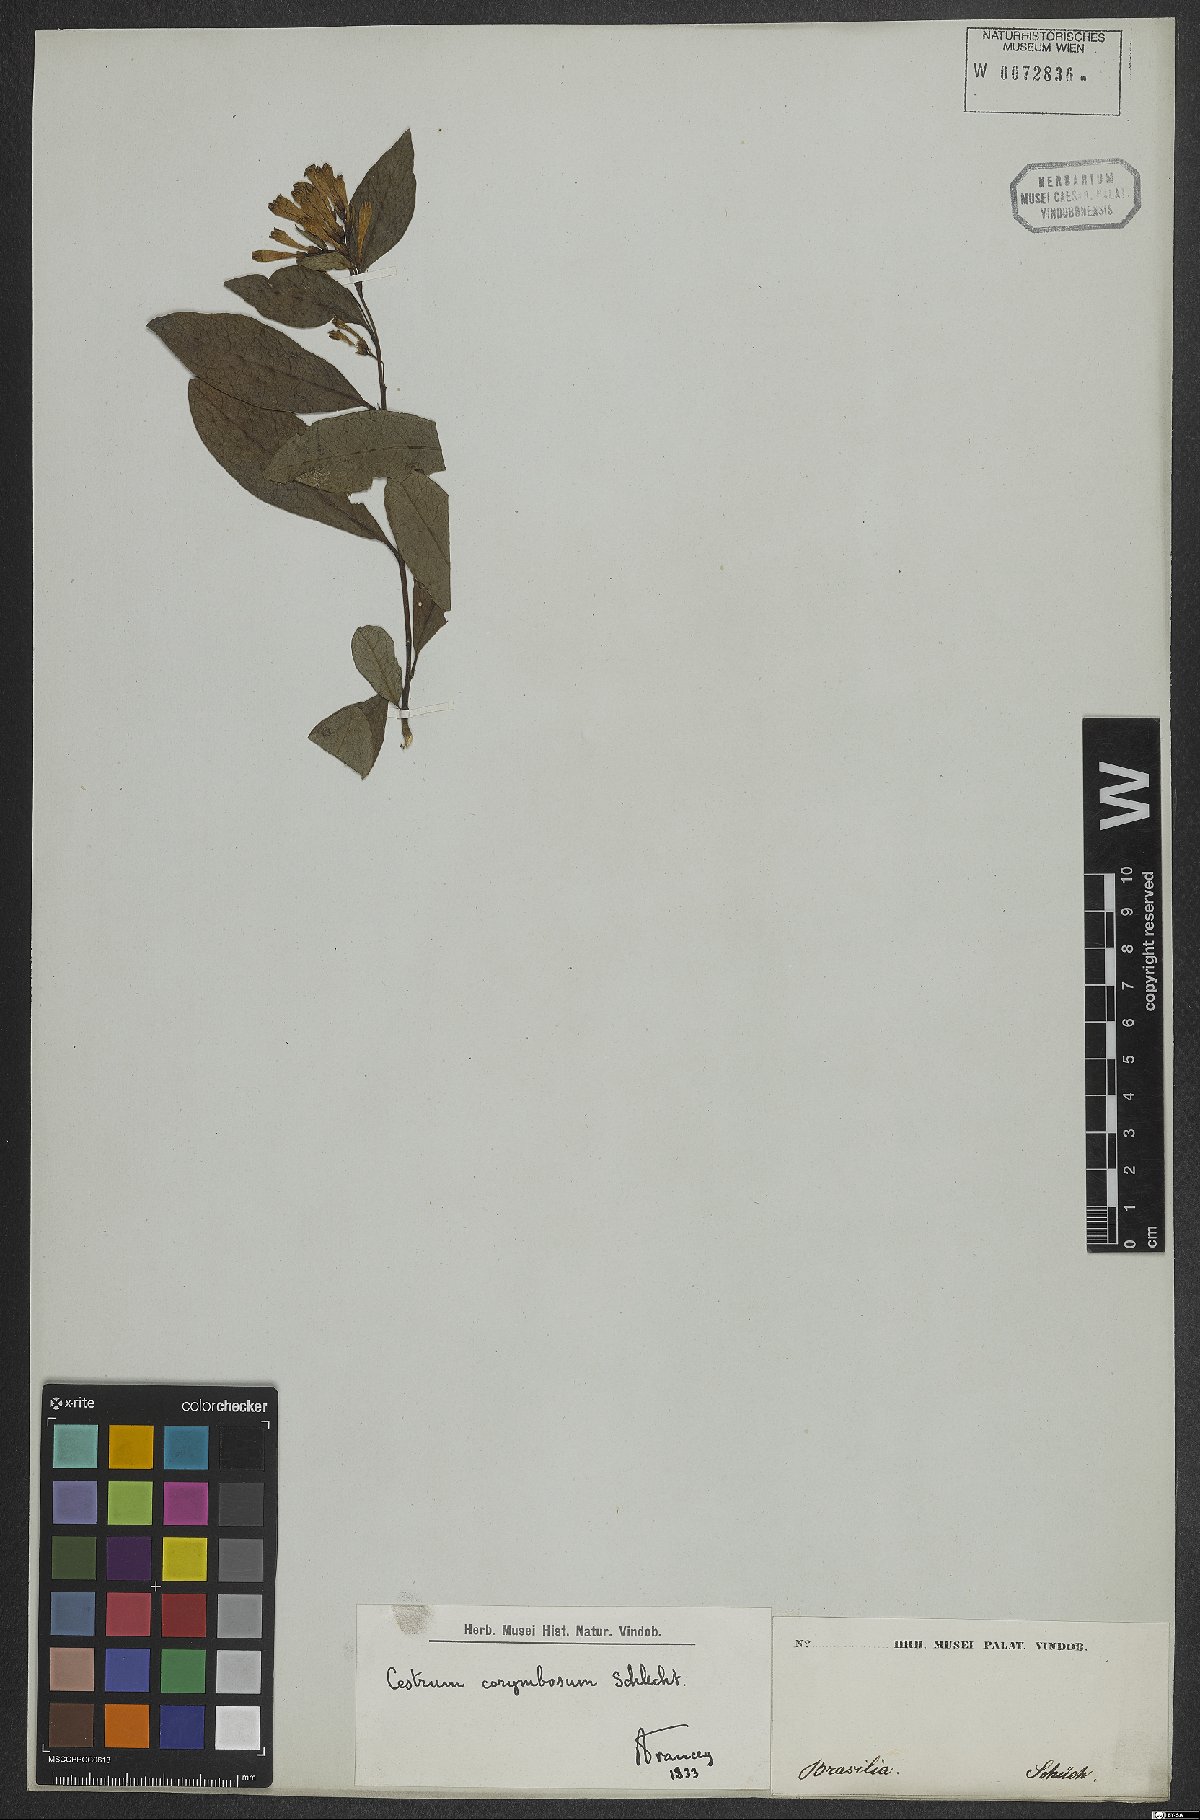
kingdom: Plantae
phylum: Tracheophyta
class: Magnoliopsida
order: Solanales
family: Solanaceae
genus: Cestrum
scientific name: Cestrum corymbosum
